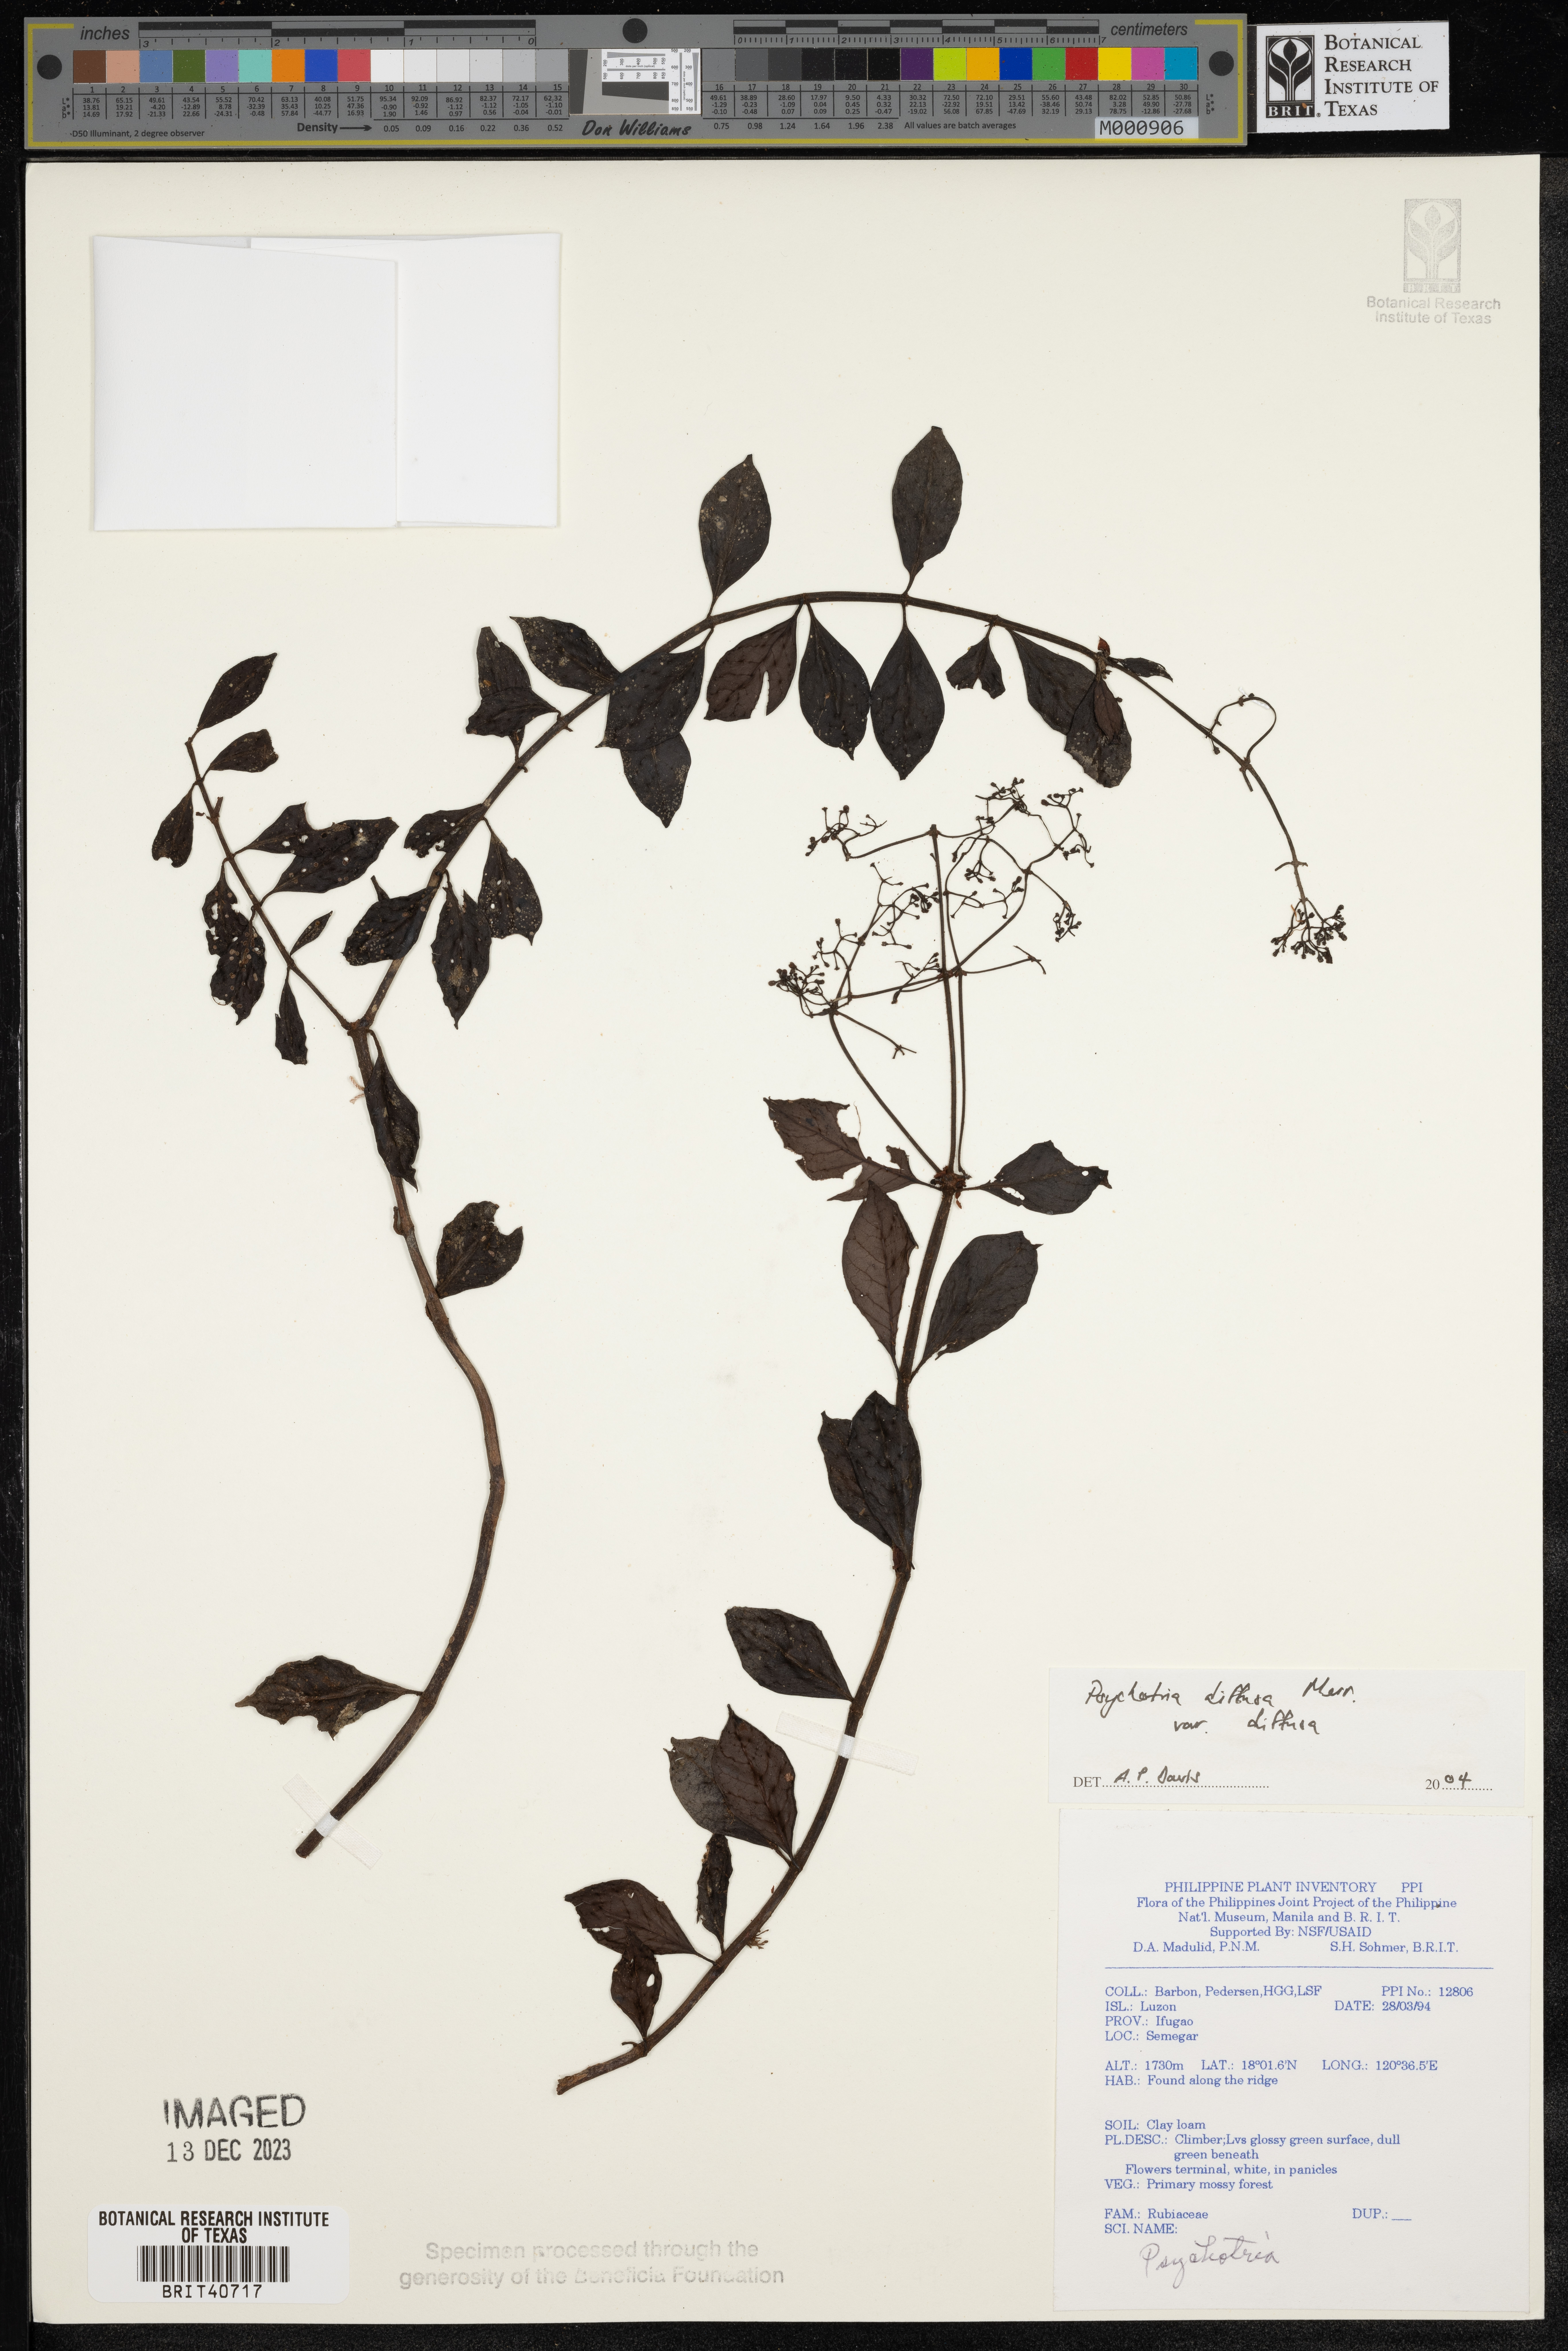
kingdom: Plantae
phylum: Tracheophyta
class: Magnoliopsida
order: Gentianales
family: Rubiaceae
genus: Psychotria
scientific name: Psychotria diffusa
